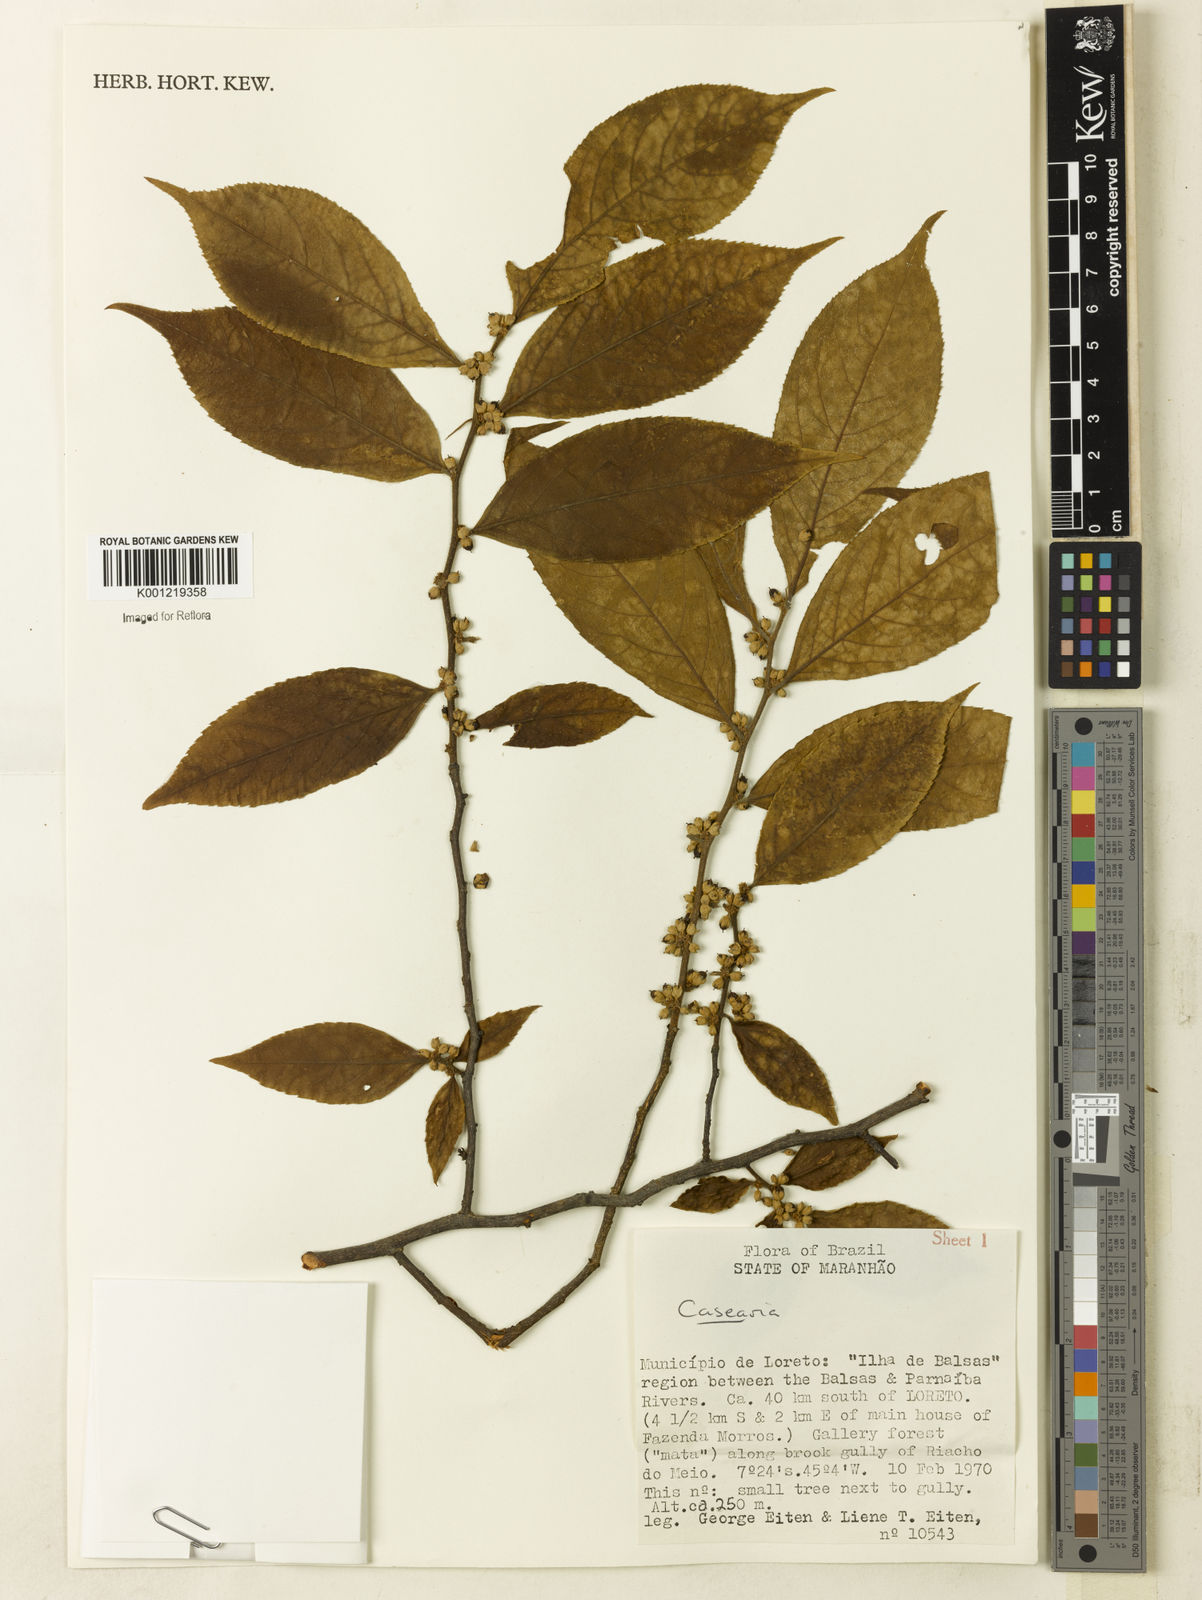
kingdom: Plantae
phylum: Tracheophyta
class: Magnoliopsida
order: Malpighiales
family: Salicaceae
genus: Casearia
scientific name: Casearia
